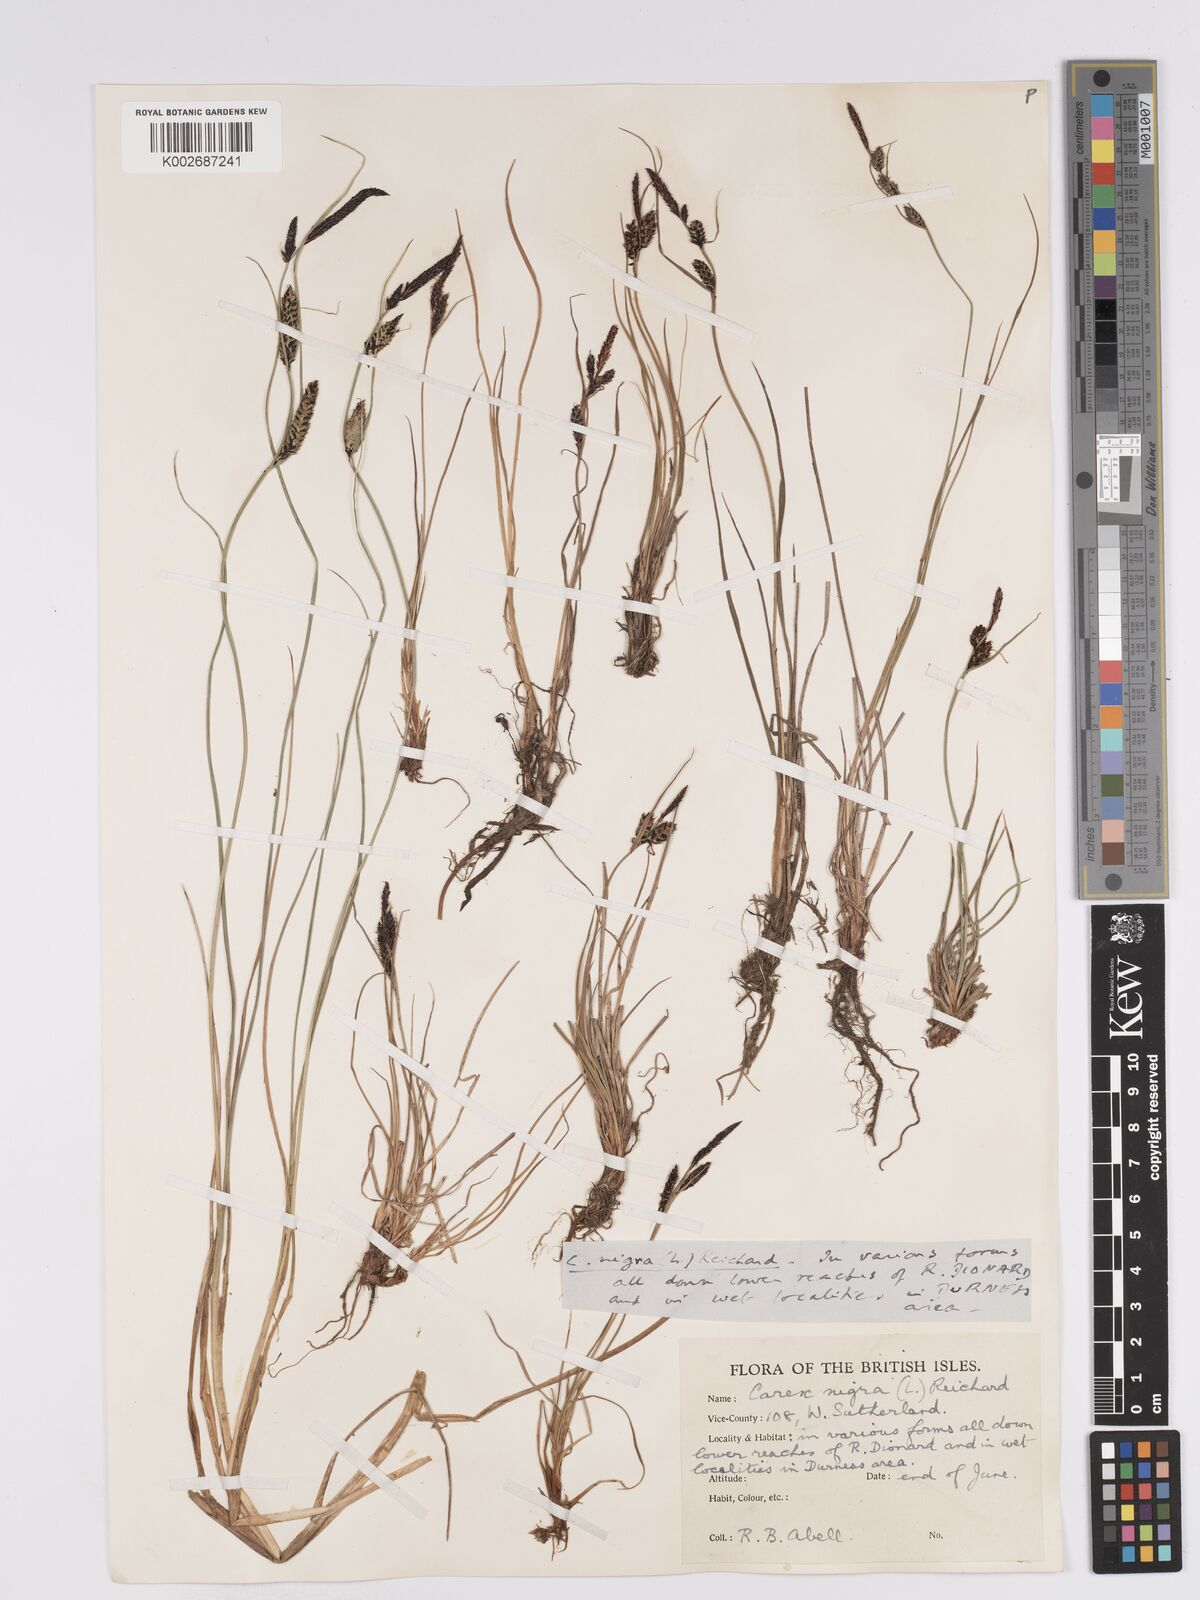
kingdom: Plantae
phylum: Tracheophyta
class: Liliopsida
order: Poales
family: Cyperaceae
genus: Carex
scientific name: Carex nigra
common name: Common sedge
